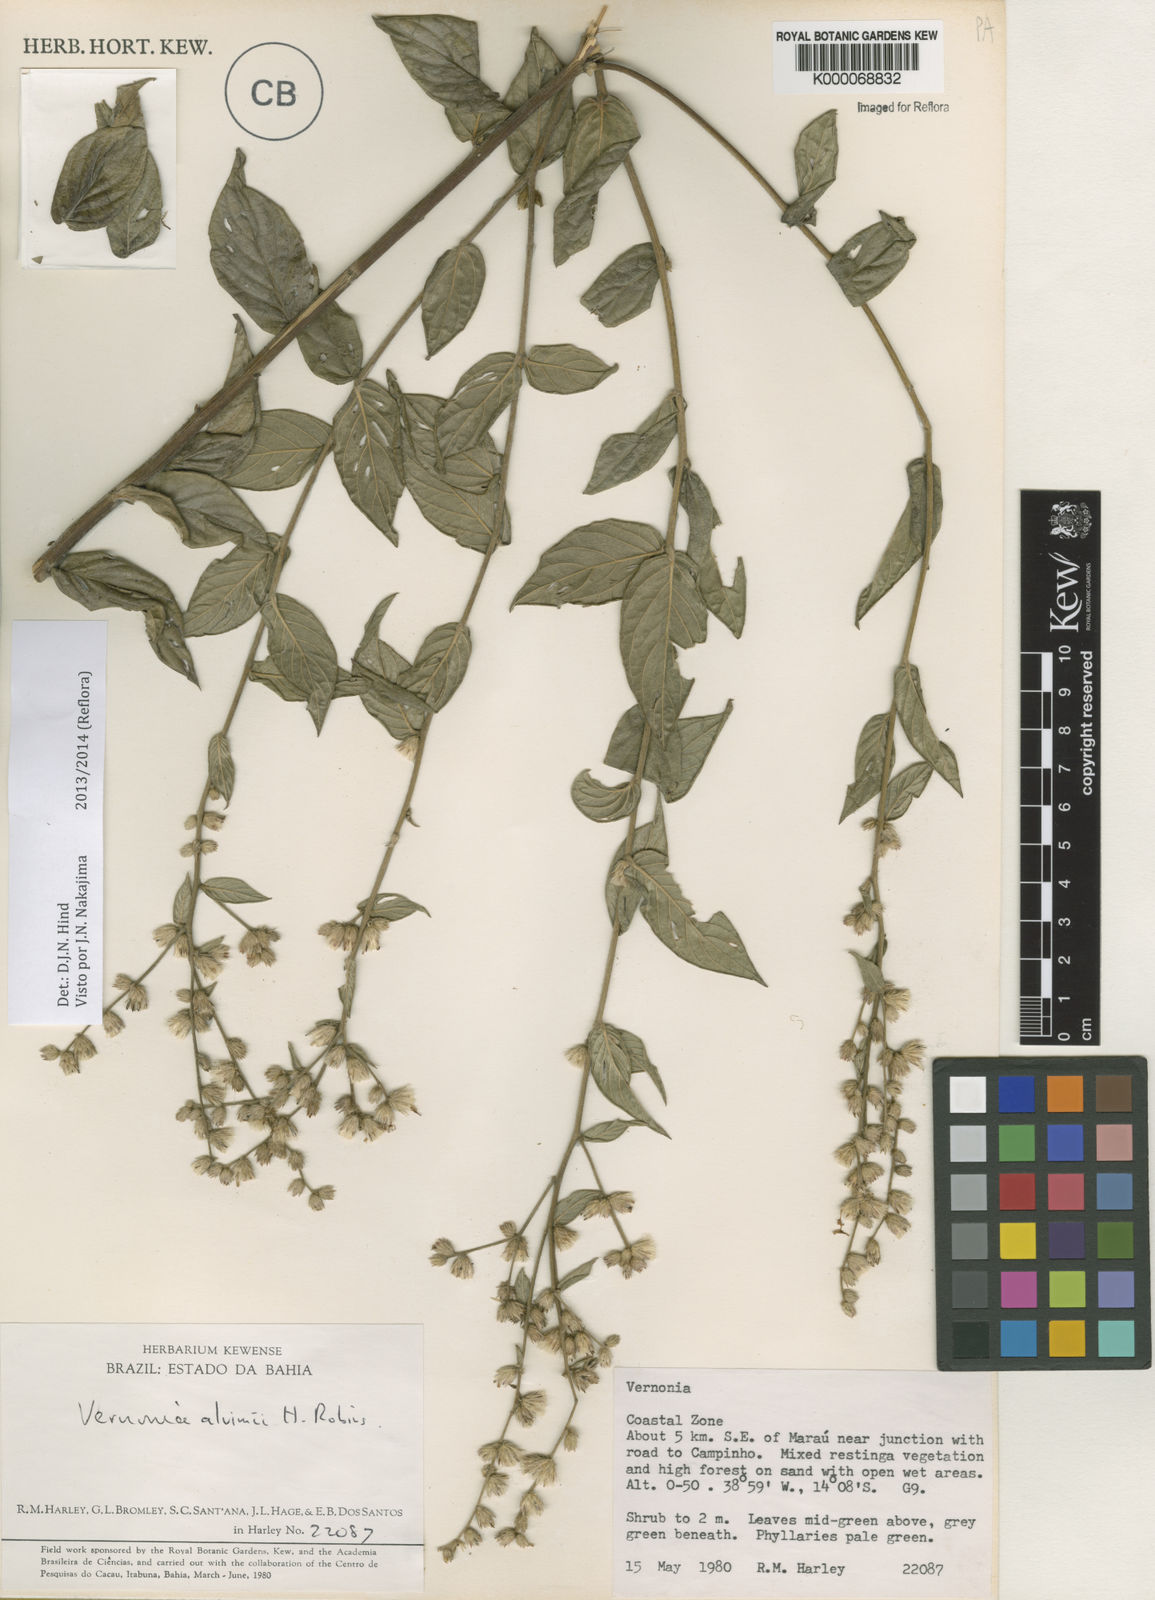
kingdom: Plantae
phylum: Tracheophyta
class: Magnoliopsida
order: Asterales
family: Asteraceae
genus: Lepidaploa
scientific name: Lepidaploa alvimii
